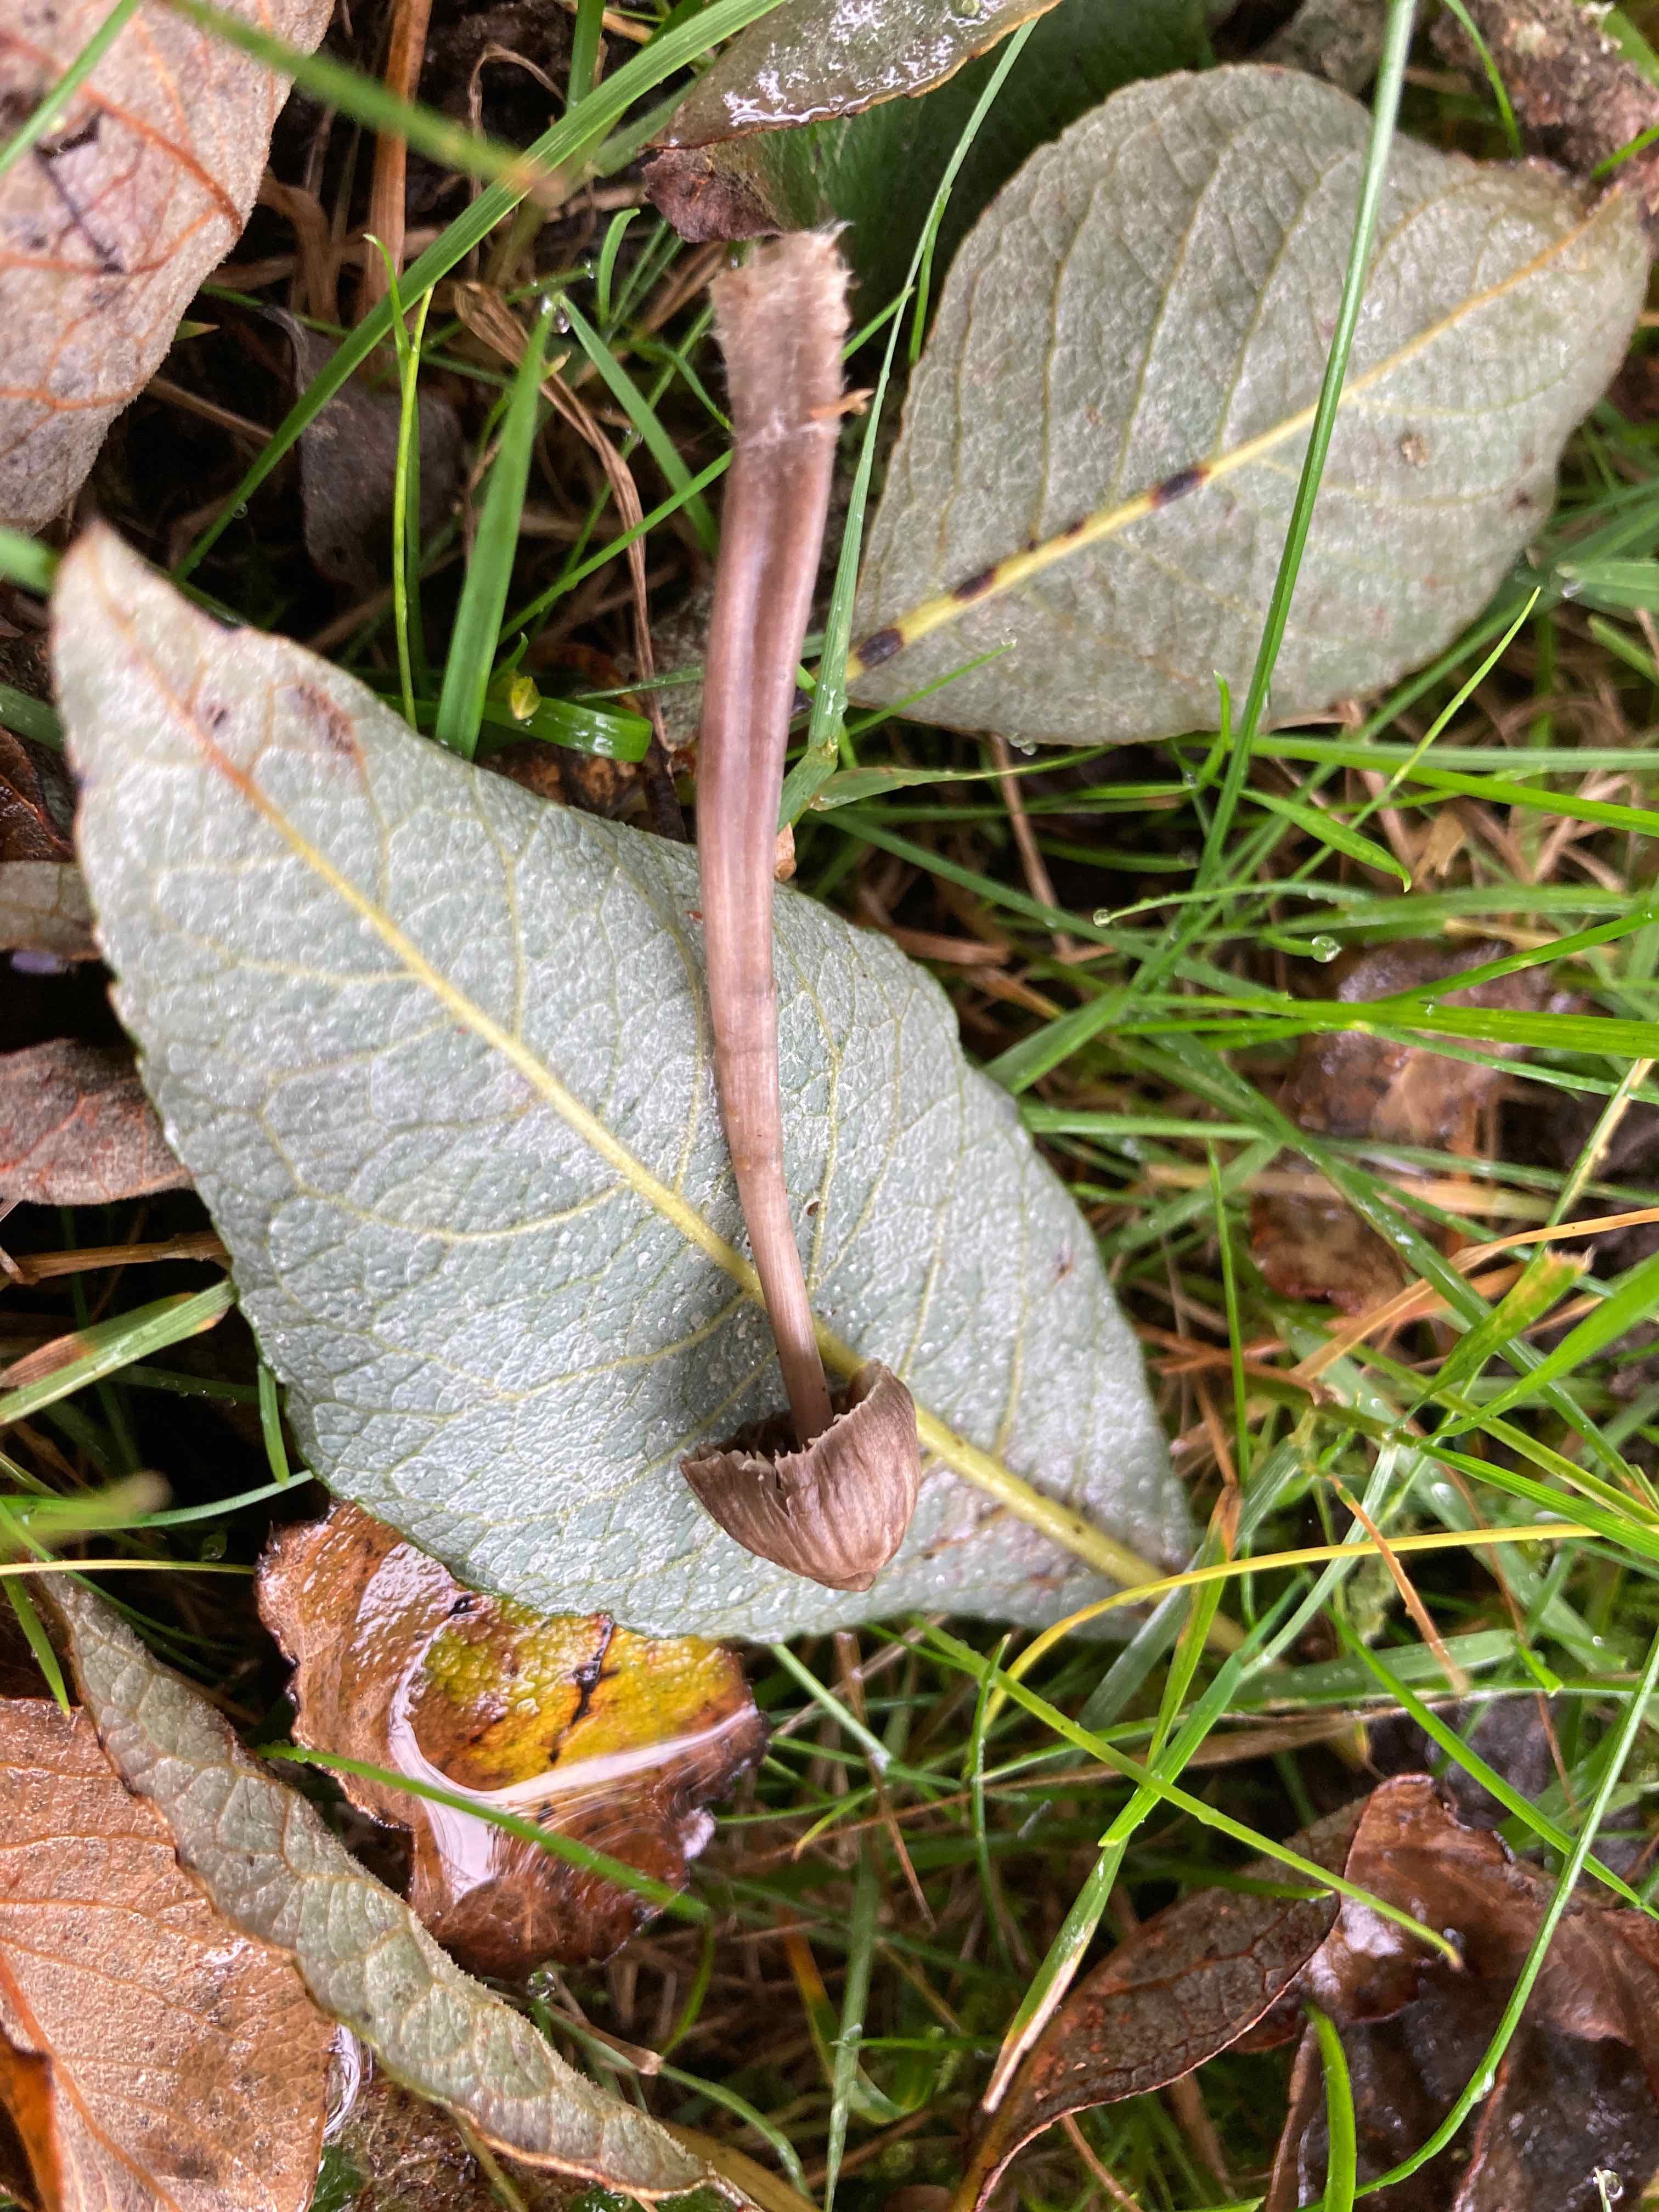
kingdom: Fungi
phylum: Basidiomycota
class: Agaricomycetes
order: Agaricales
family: Mycenaceae
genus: Mycena
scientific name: Mycena
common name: huesvamp
